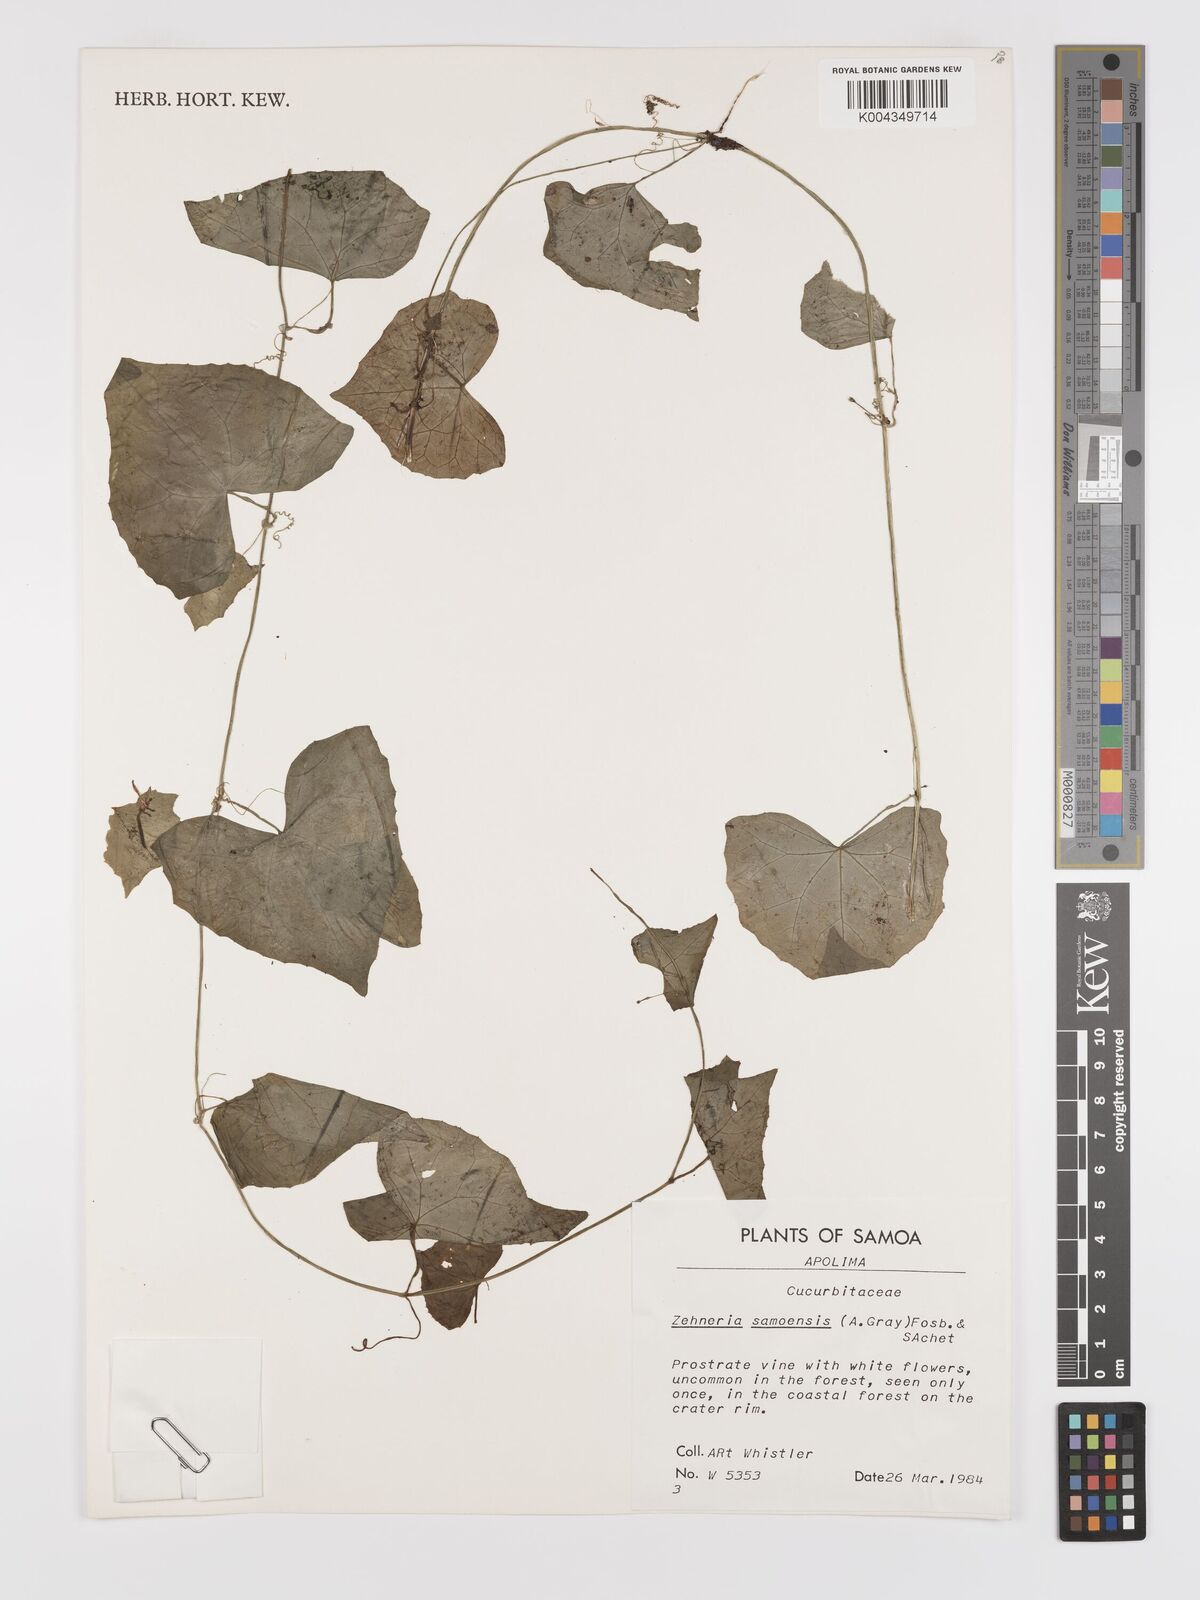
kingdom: Plantae
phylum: Tracheophyta
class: Magnoliopsida
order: Cucurbitales
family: Cucurbitaceae
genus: Zehneria
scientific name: Zehneria mucronata
